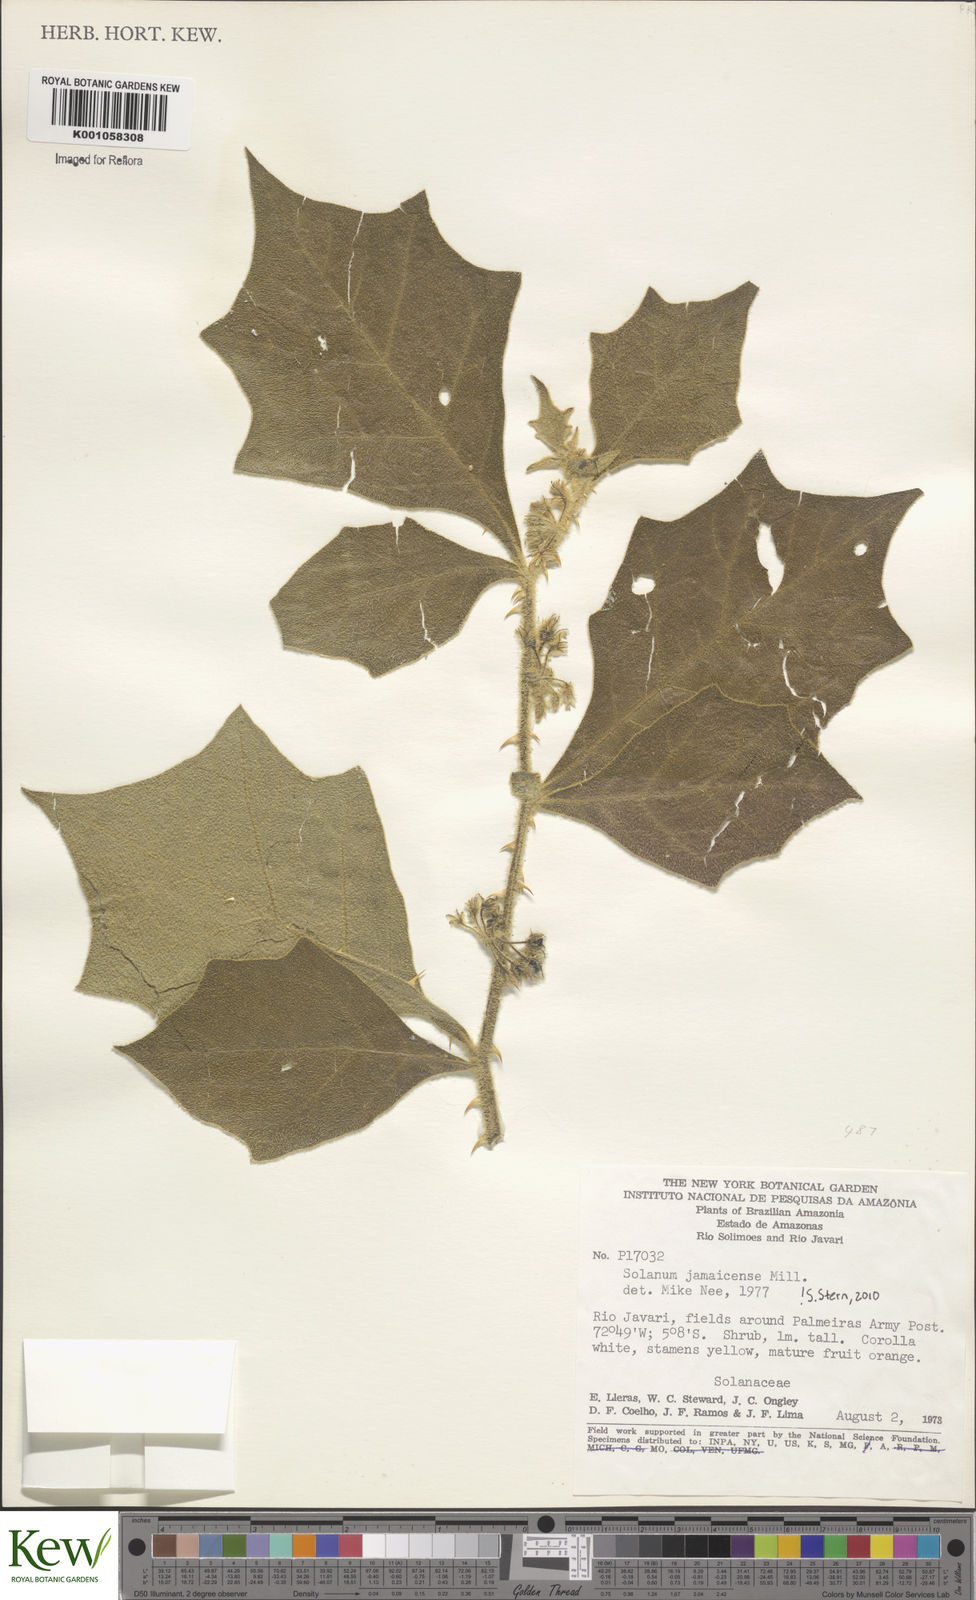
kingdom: Plantae
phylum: Tracheophyta
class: Magnoliopsida
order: Solanales
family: Solanaceae
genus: Solanum
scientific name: Solanum jamaicense
